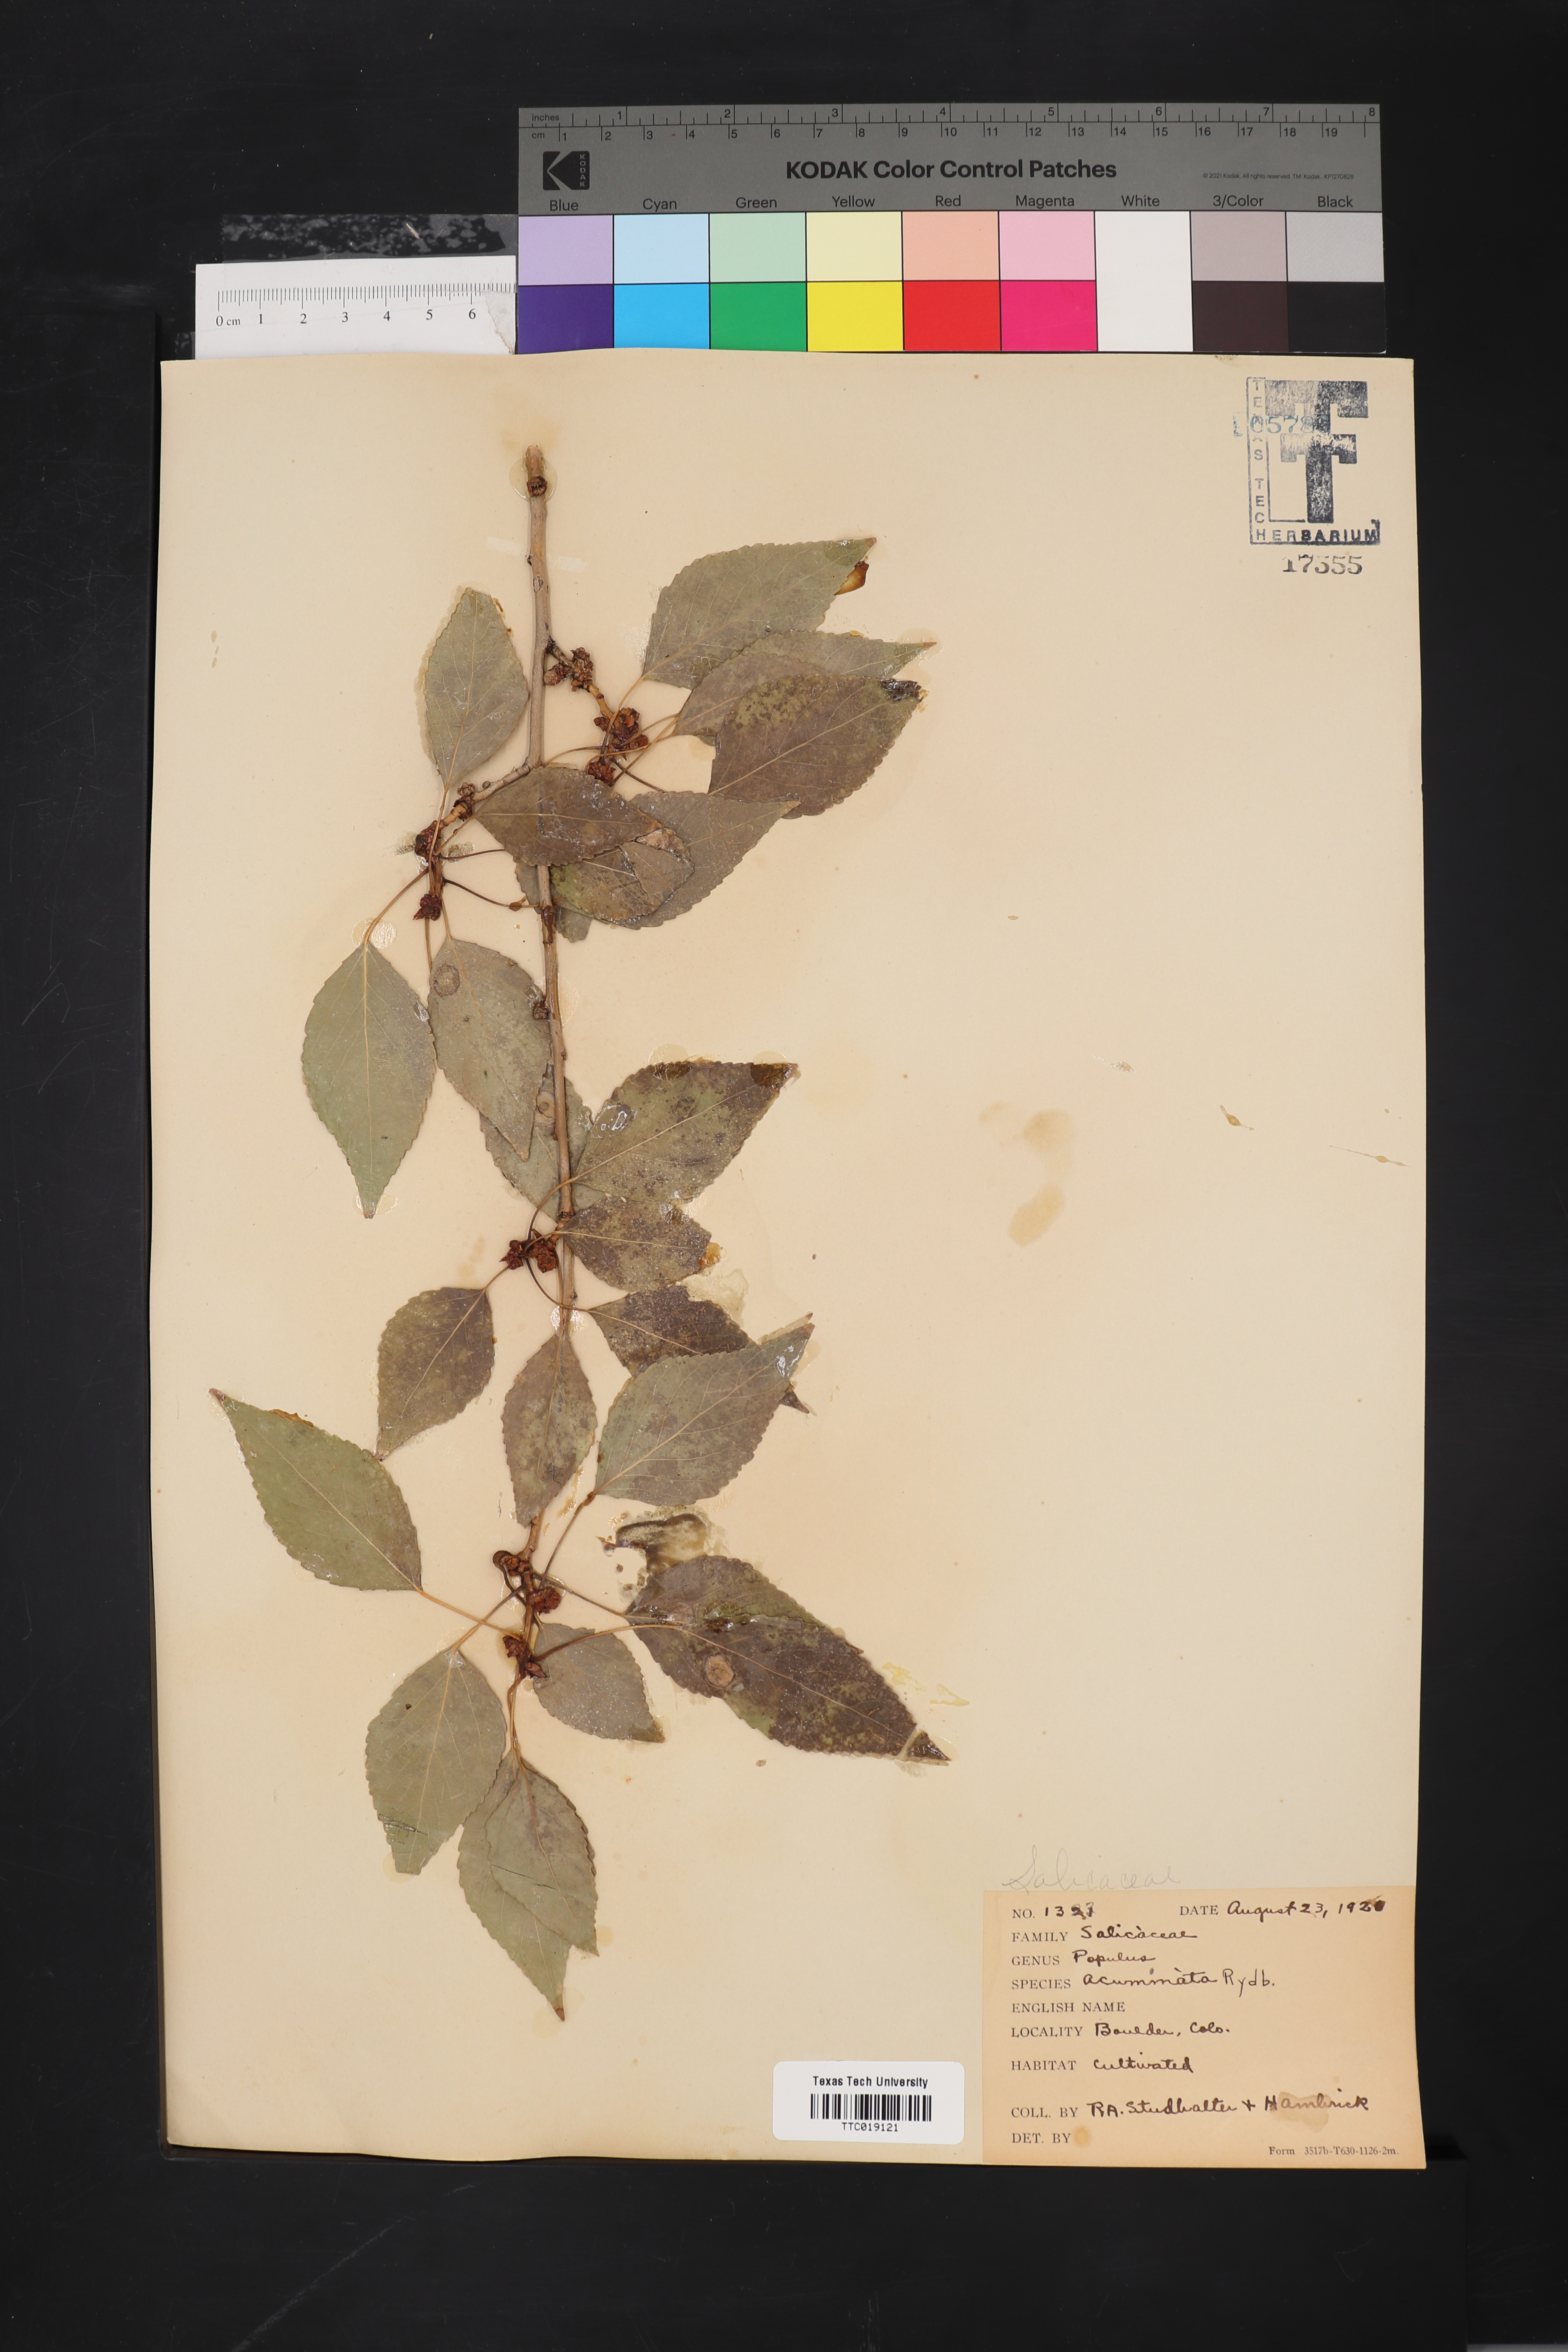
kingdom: Plantae
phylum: Tracheophyta
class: Magnoliopsida
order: Malpighiales
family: Salicaceae
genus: Populus
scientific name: Populus acuminata
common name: Lance-leaved cottonwood
